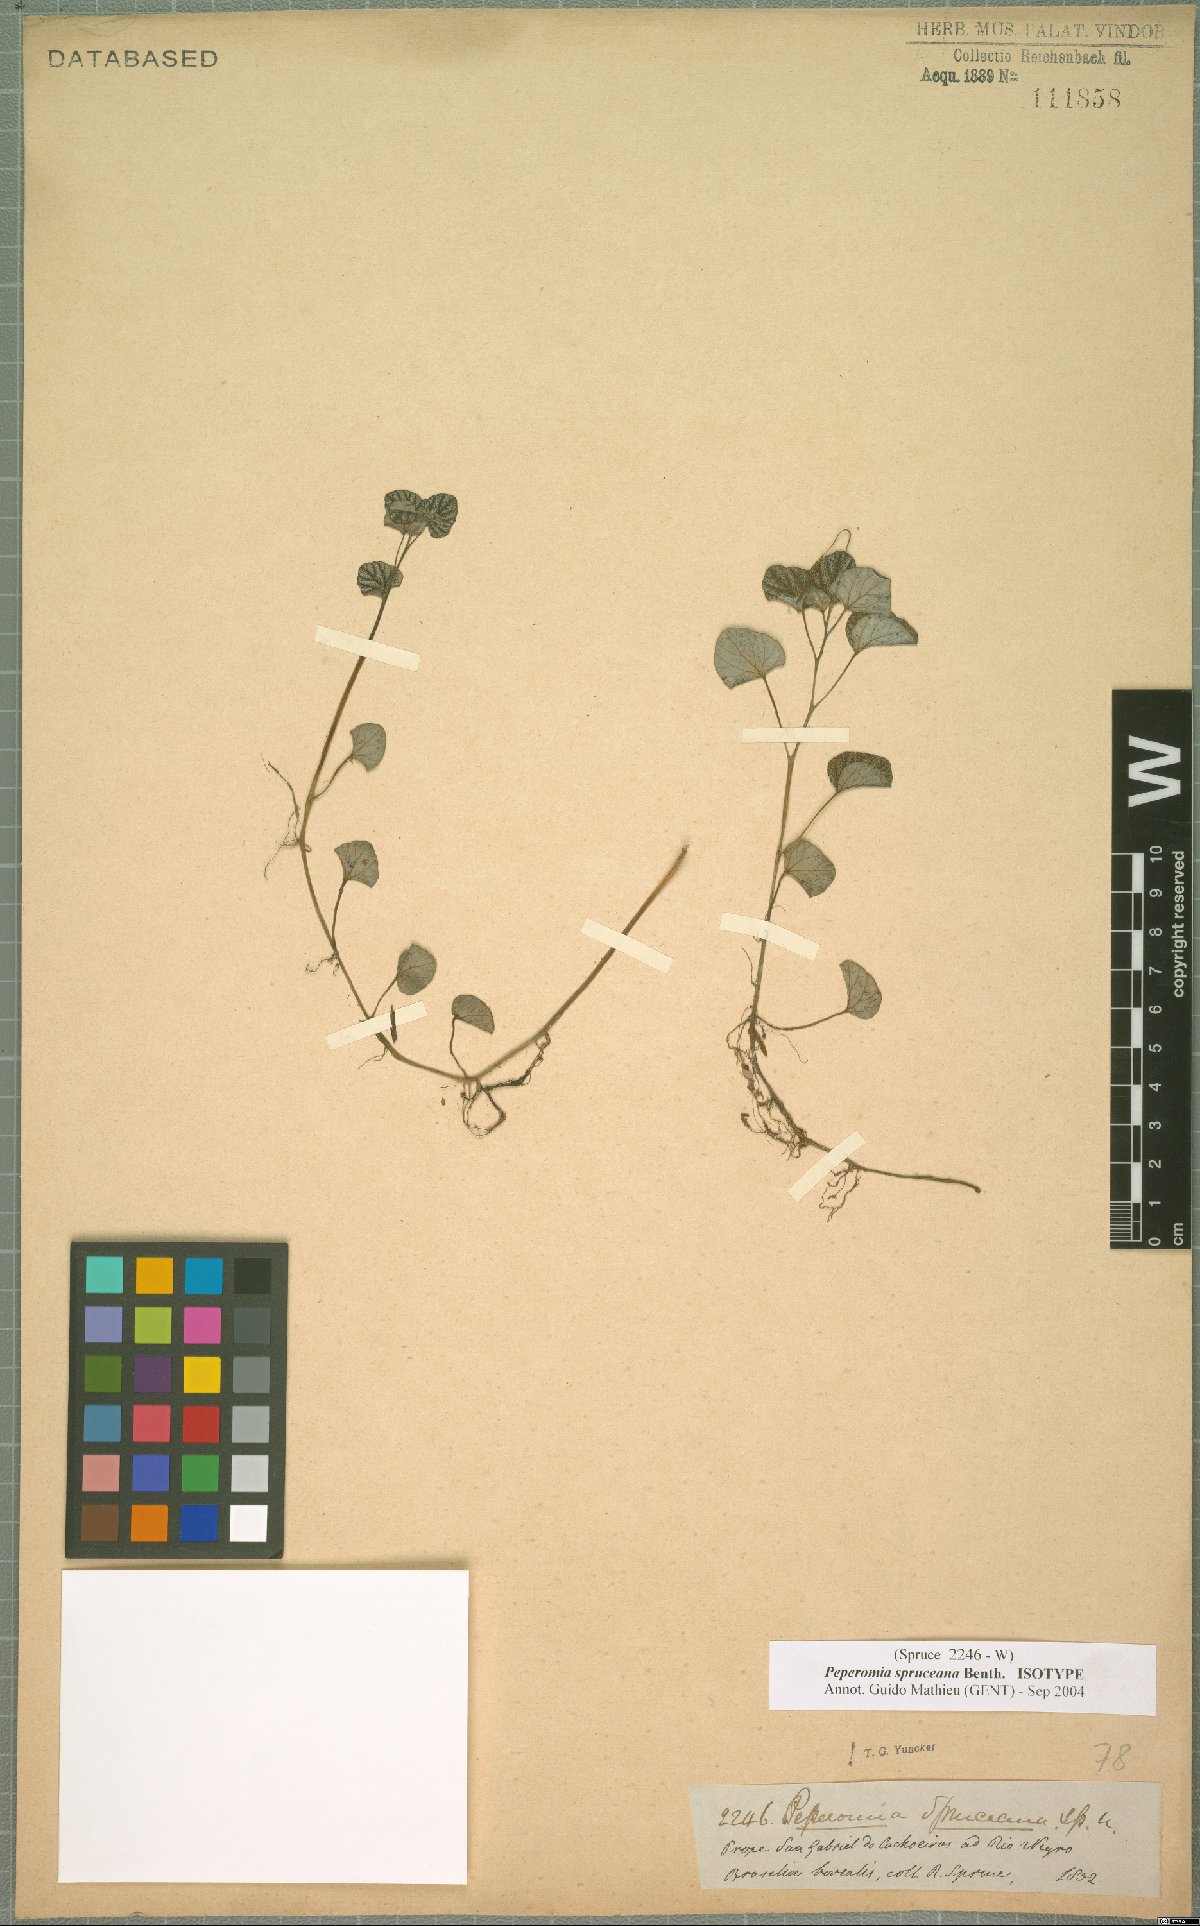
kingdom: Plantae
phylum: Tracheophyta
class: Magnoliopsida
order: Piperales
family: Piperaceae
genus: Peperomia
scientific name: Peperomia spruceana
